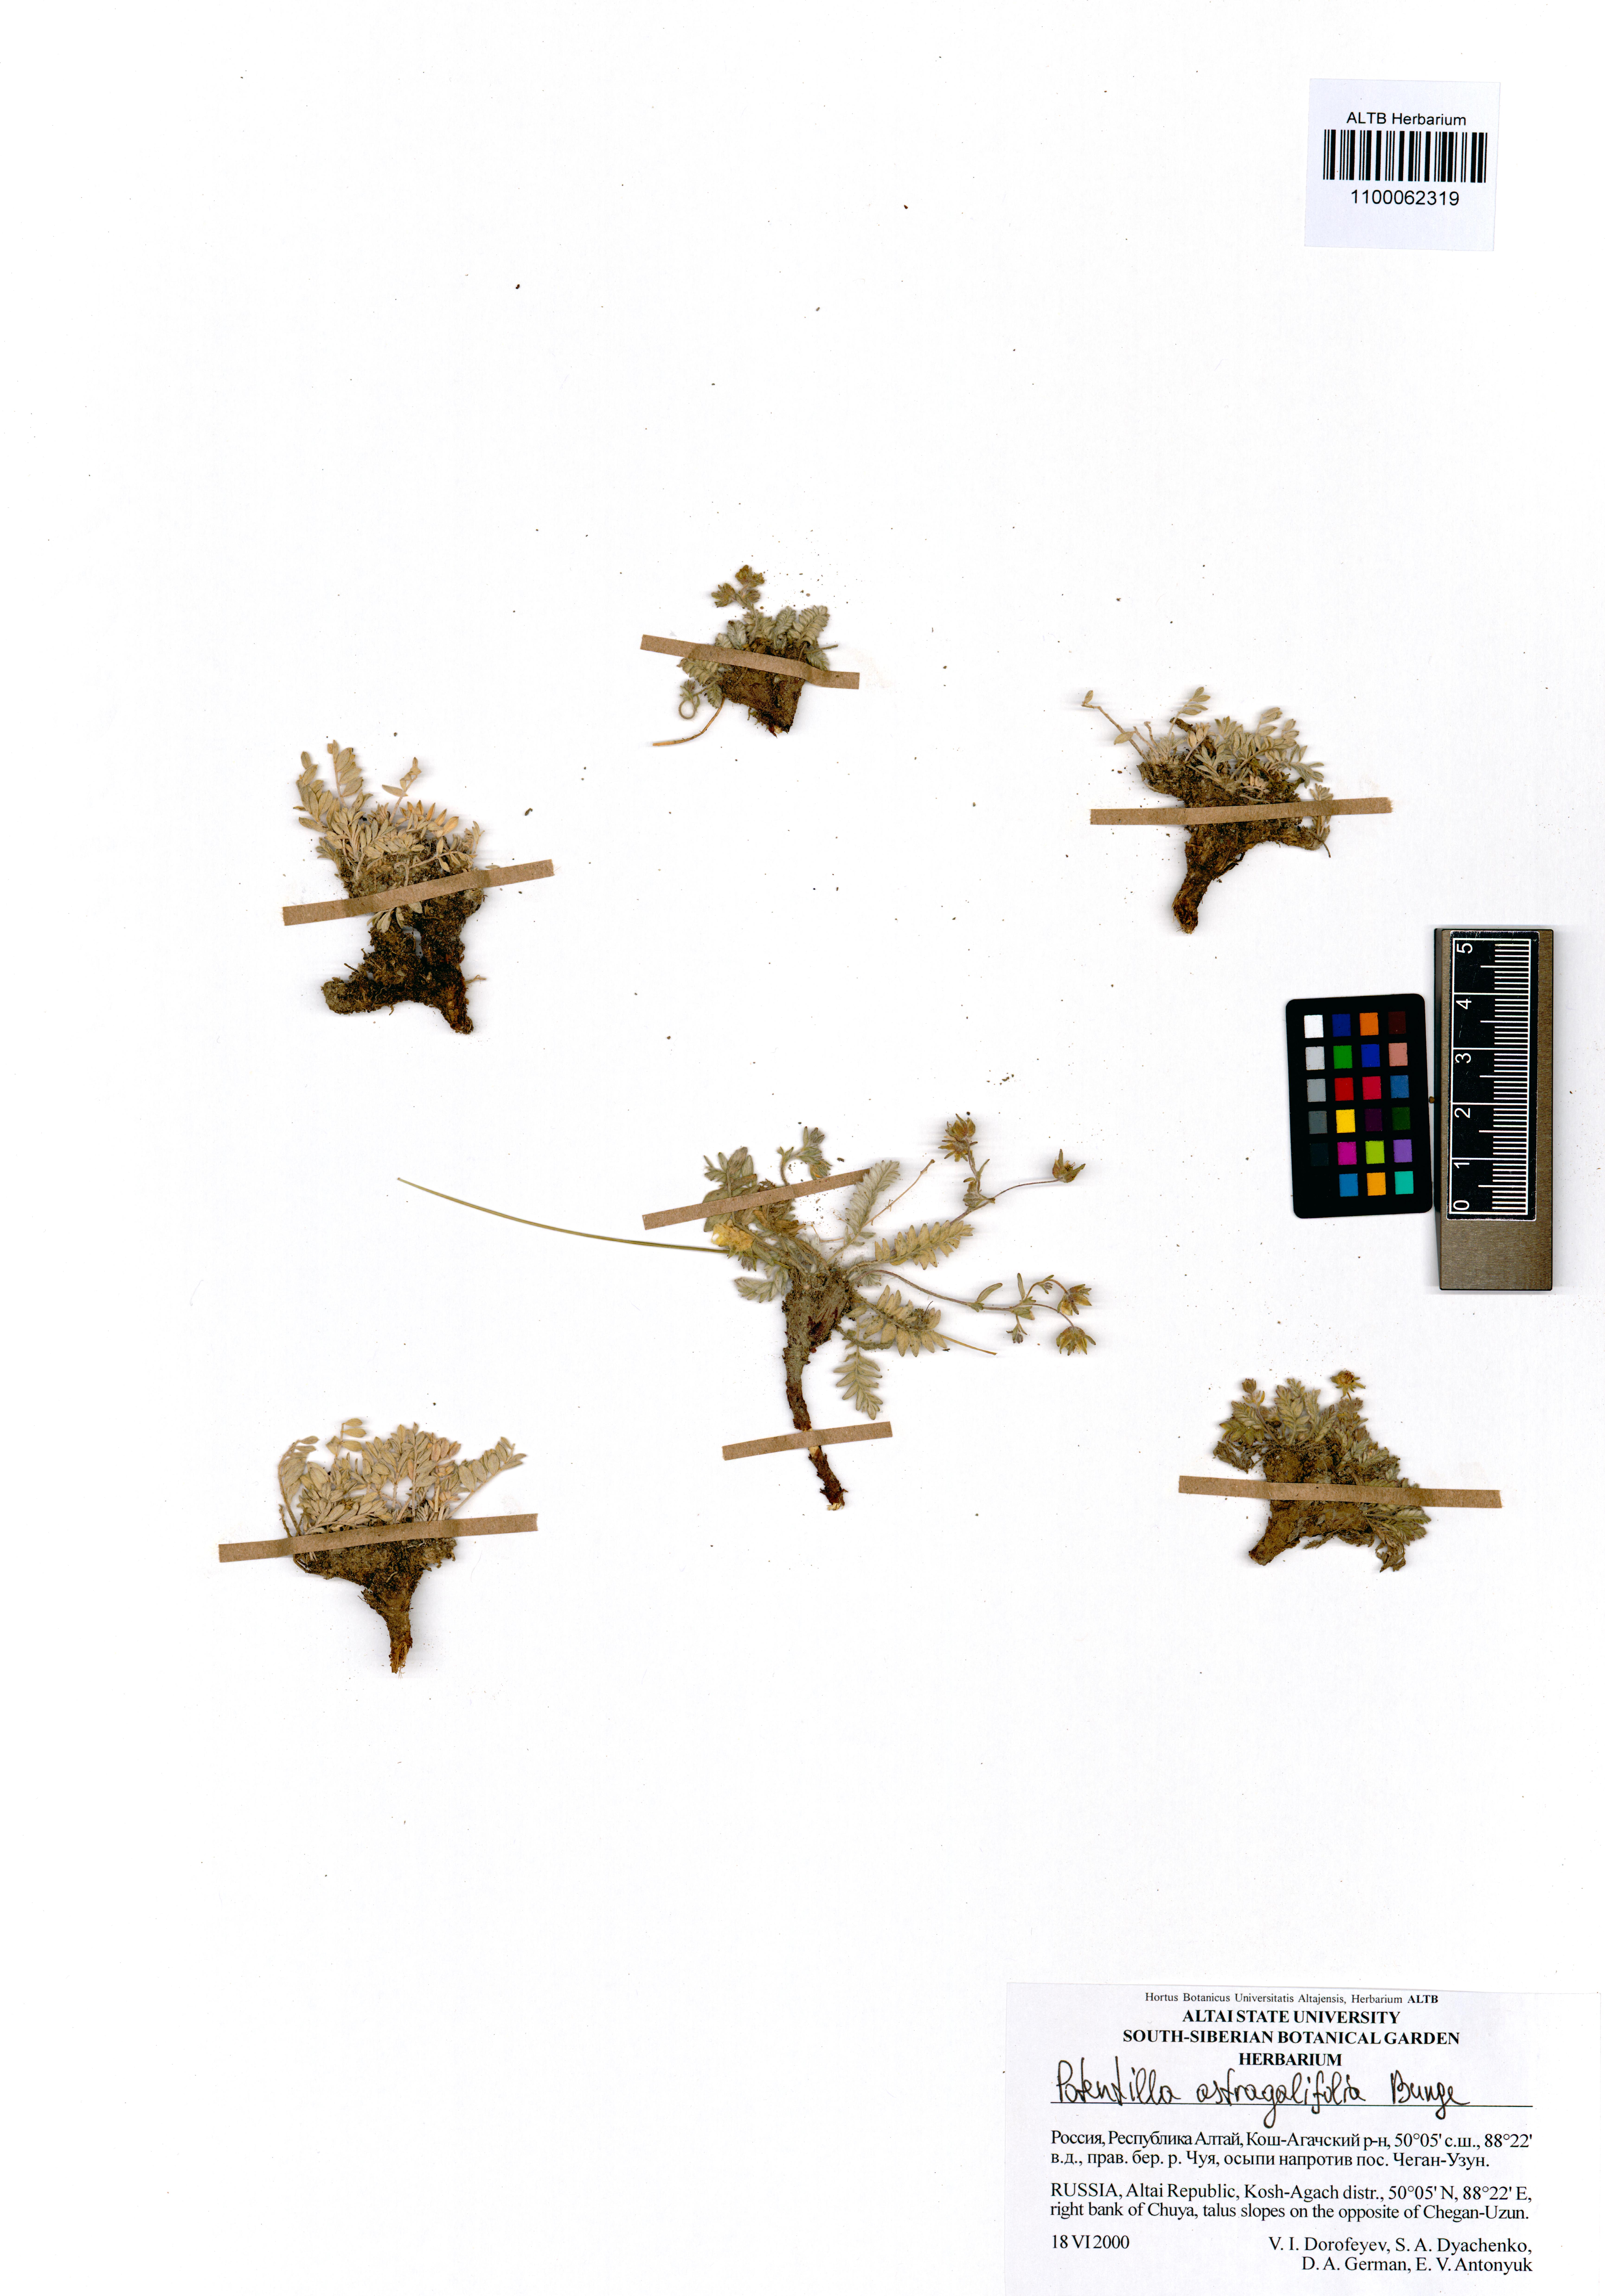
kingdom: Plantae
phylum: Tracheophyta
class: Magnoliopsida
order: Rosales
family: Rosaceae
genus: Potentilla
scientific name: Potentilla astragalifolia
